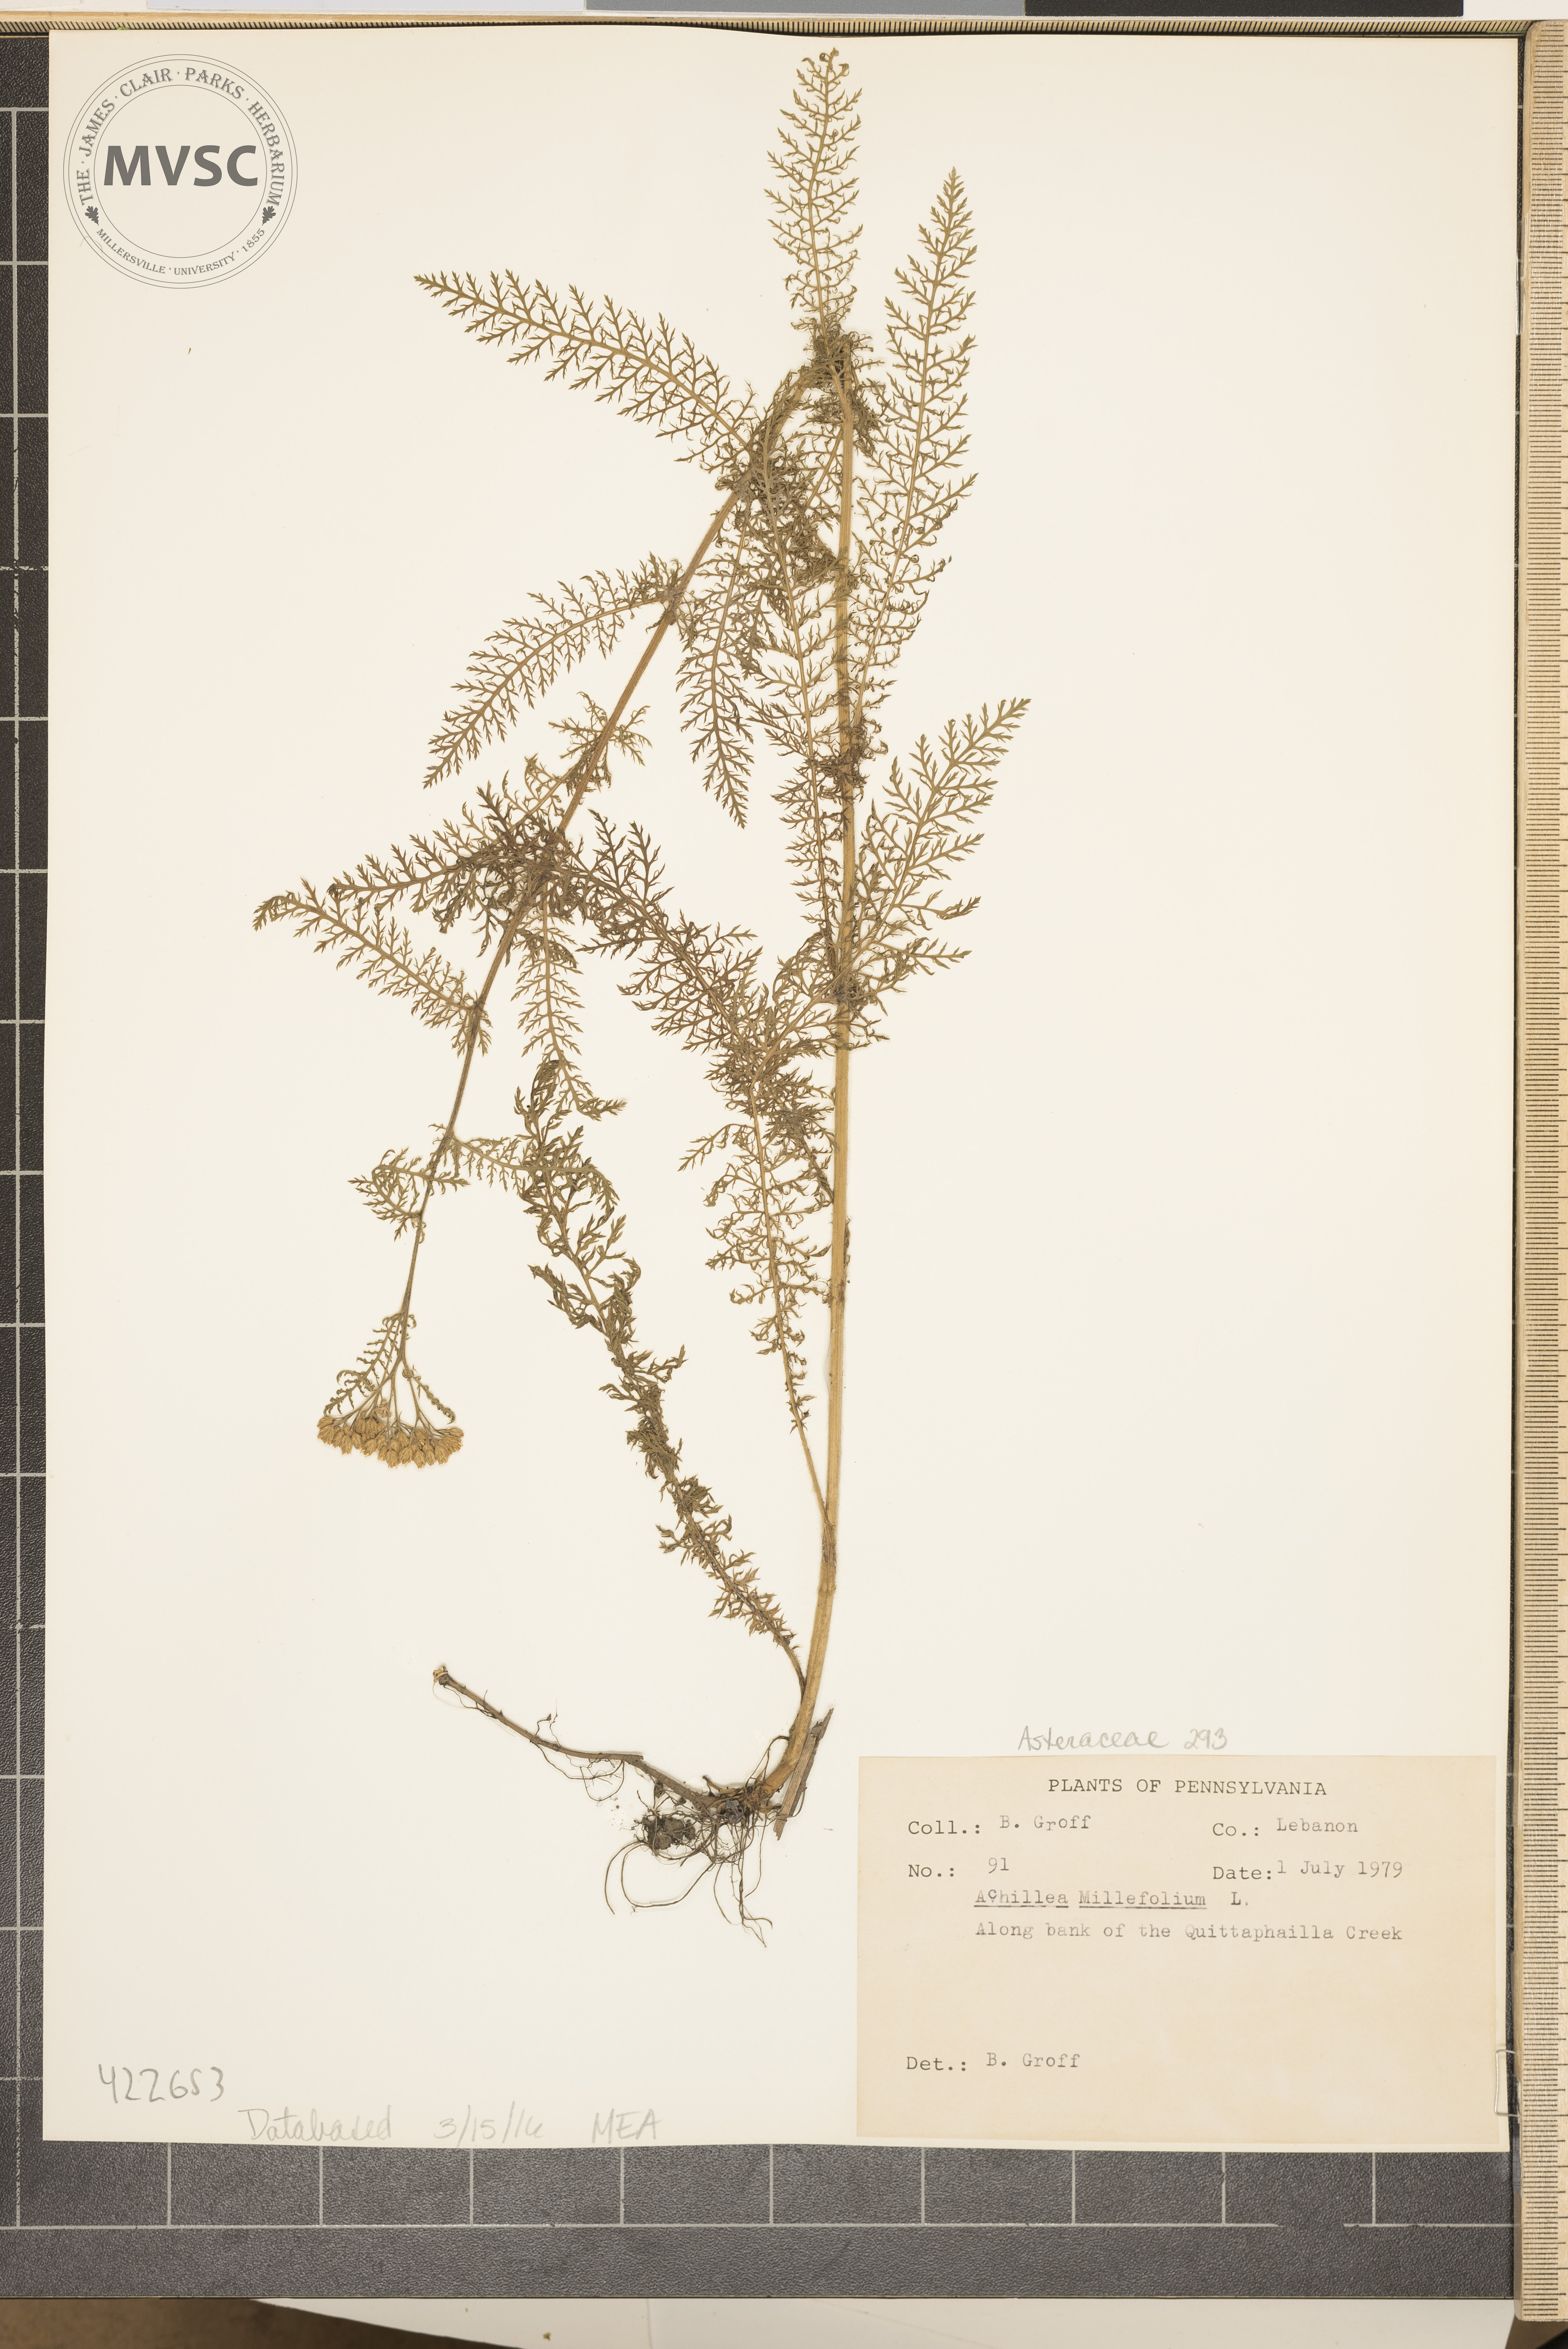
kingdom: Plantae
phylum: Tracheophyta
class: Magnoliopsida
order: Asterales
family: Asteraceae
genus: Achillea
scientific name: Achillea millefolium
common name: Yarrow
